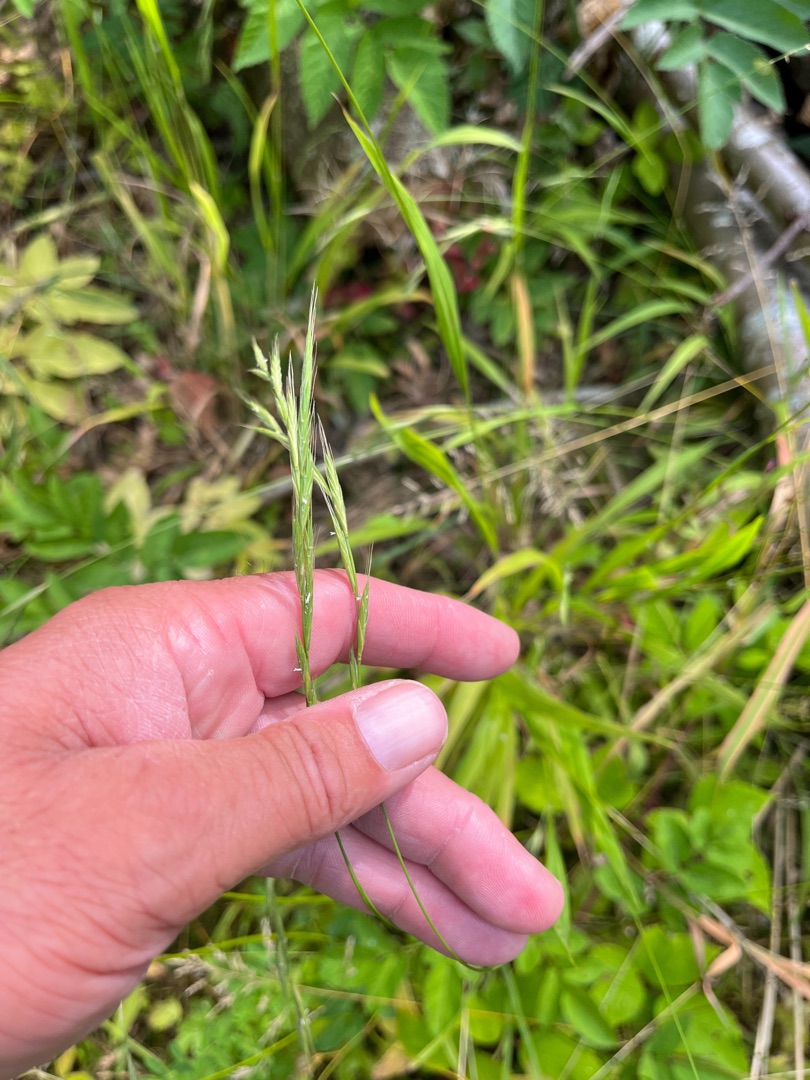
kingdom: Plantae
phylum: Tracheophyta
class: Liliopsida
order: Poales
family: Poaceae
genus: Brachypodium
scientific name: Brachypodium sylvaticum
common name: Skov-stilkaks
